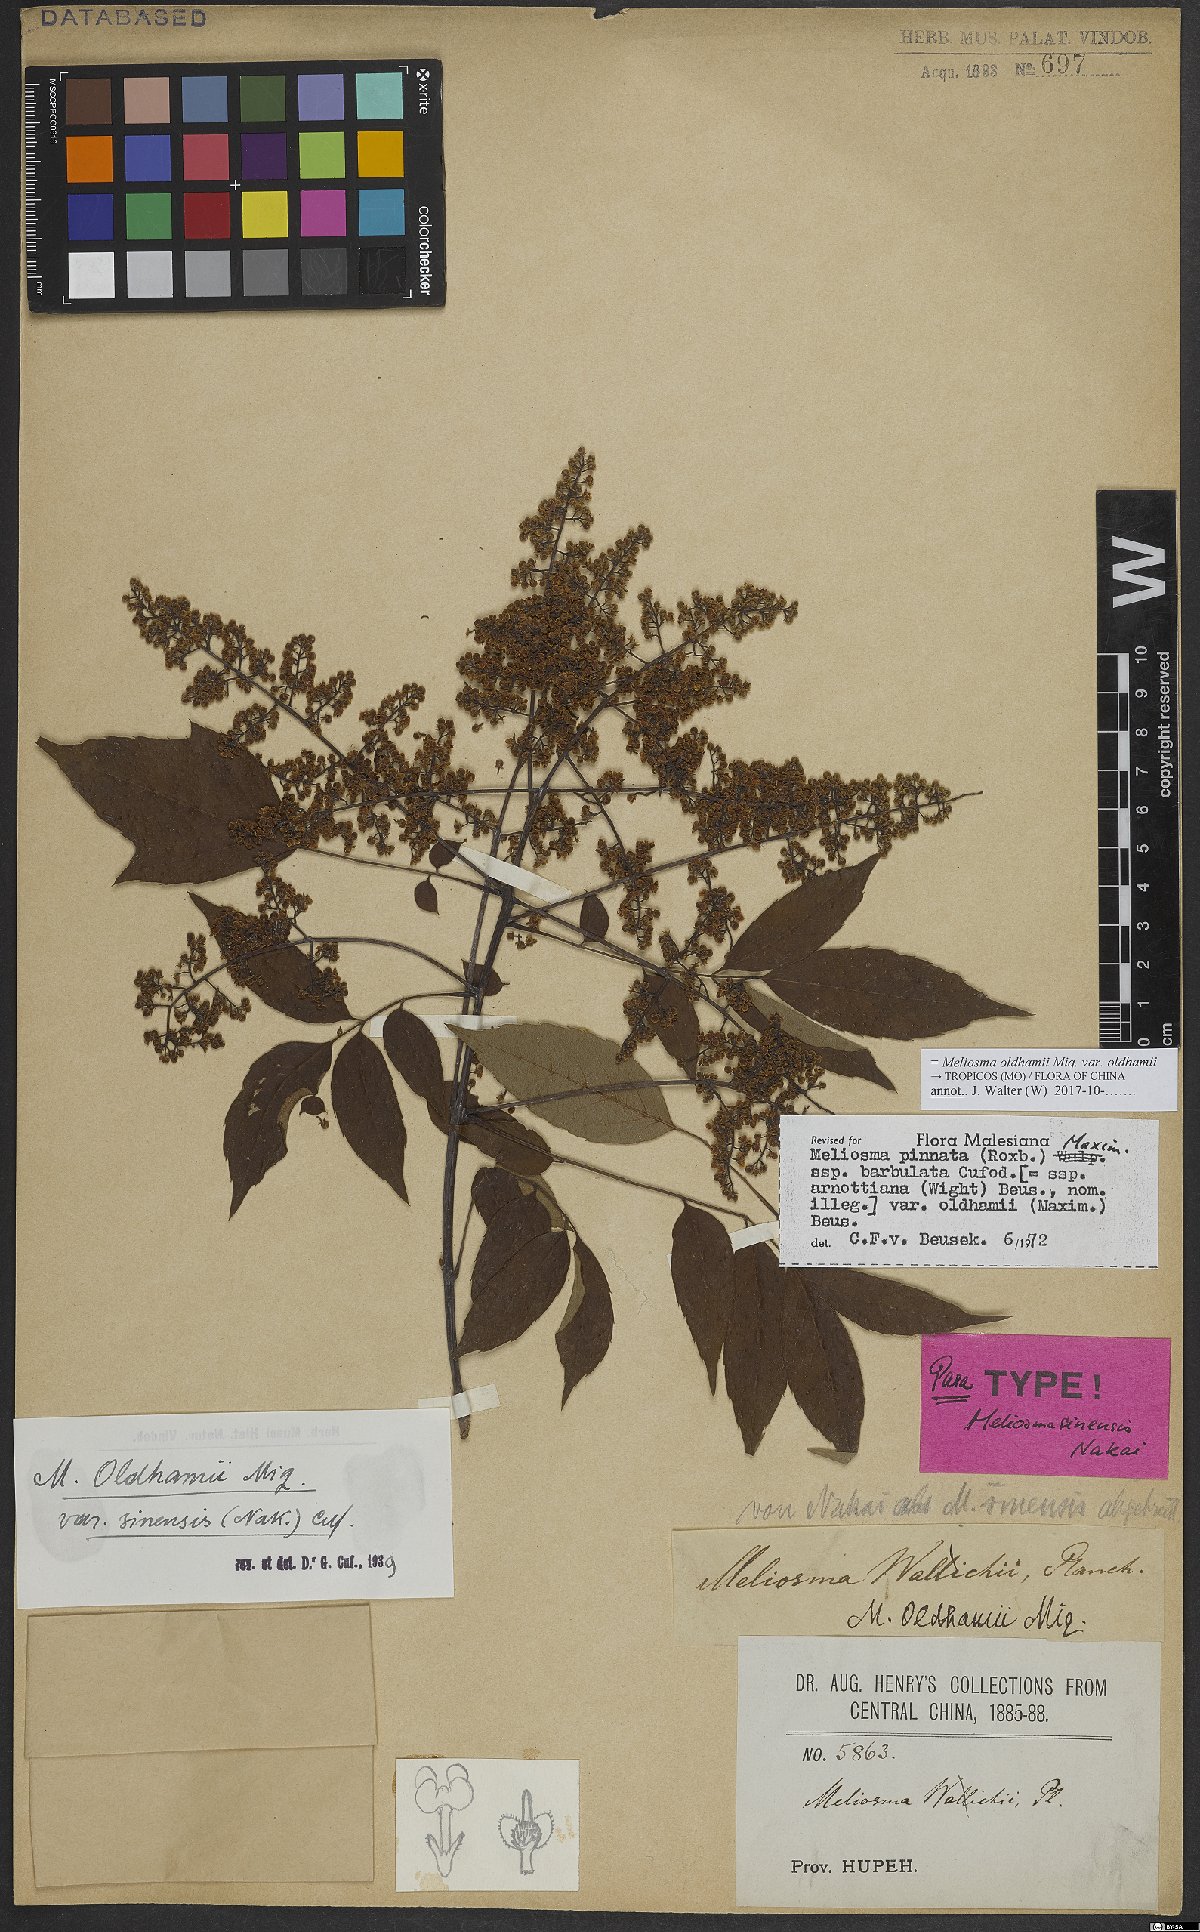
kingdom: Plantae
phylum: Tracheophyta
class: Magnoliopsida
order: Proteales
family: Sabiaceae
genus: Meliosma
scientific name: Meliosma oldhamii
